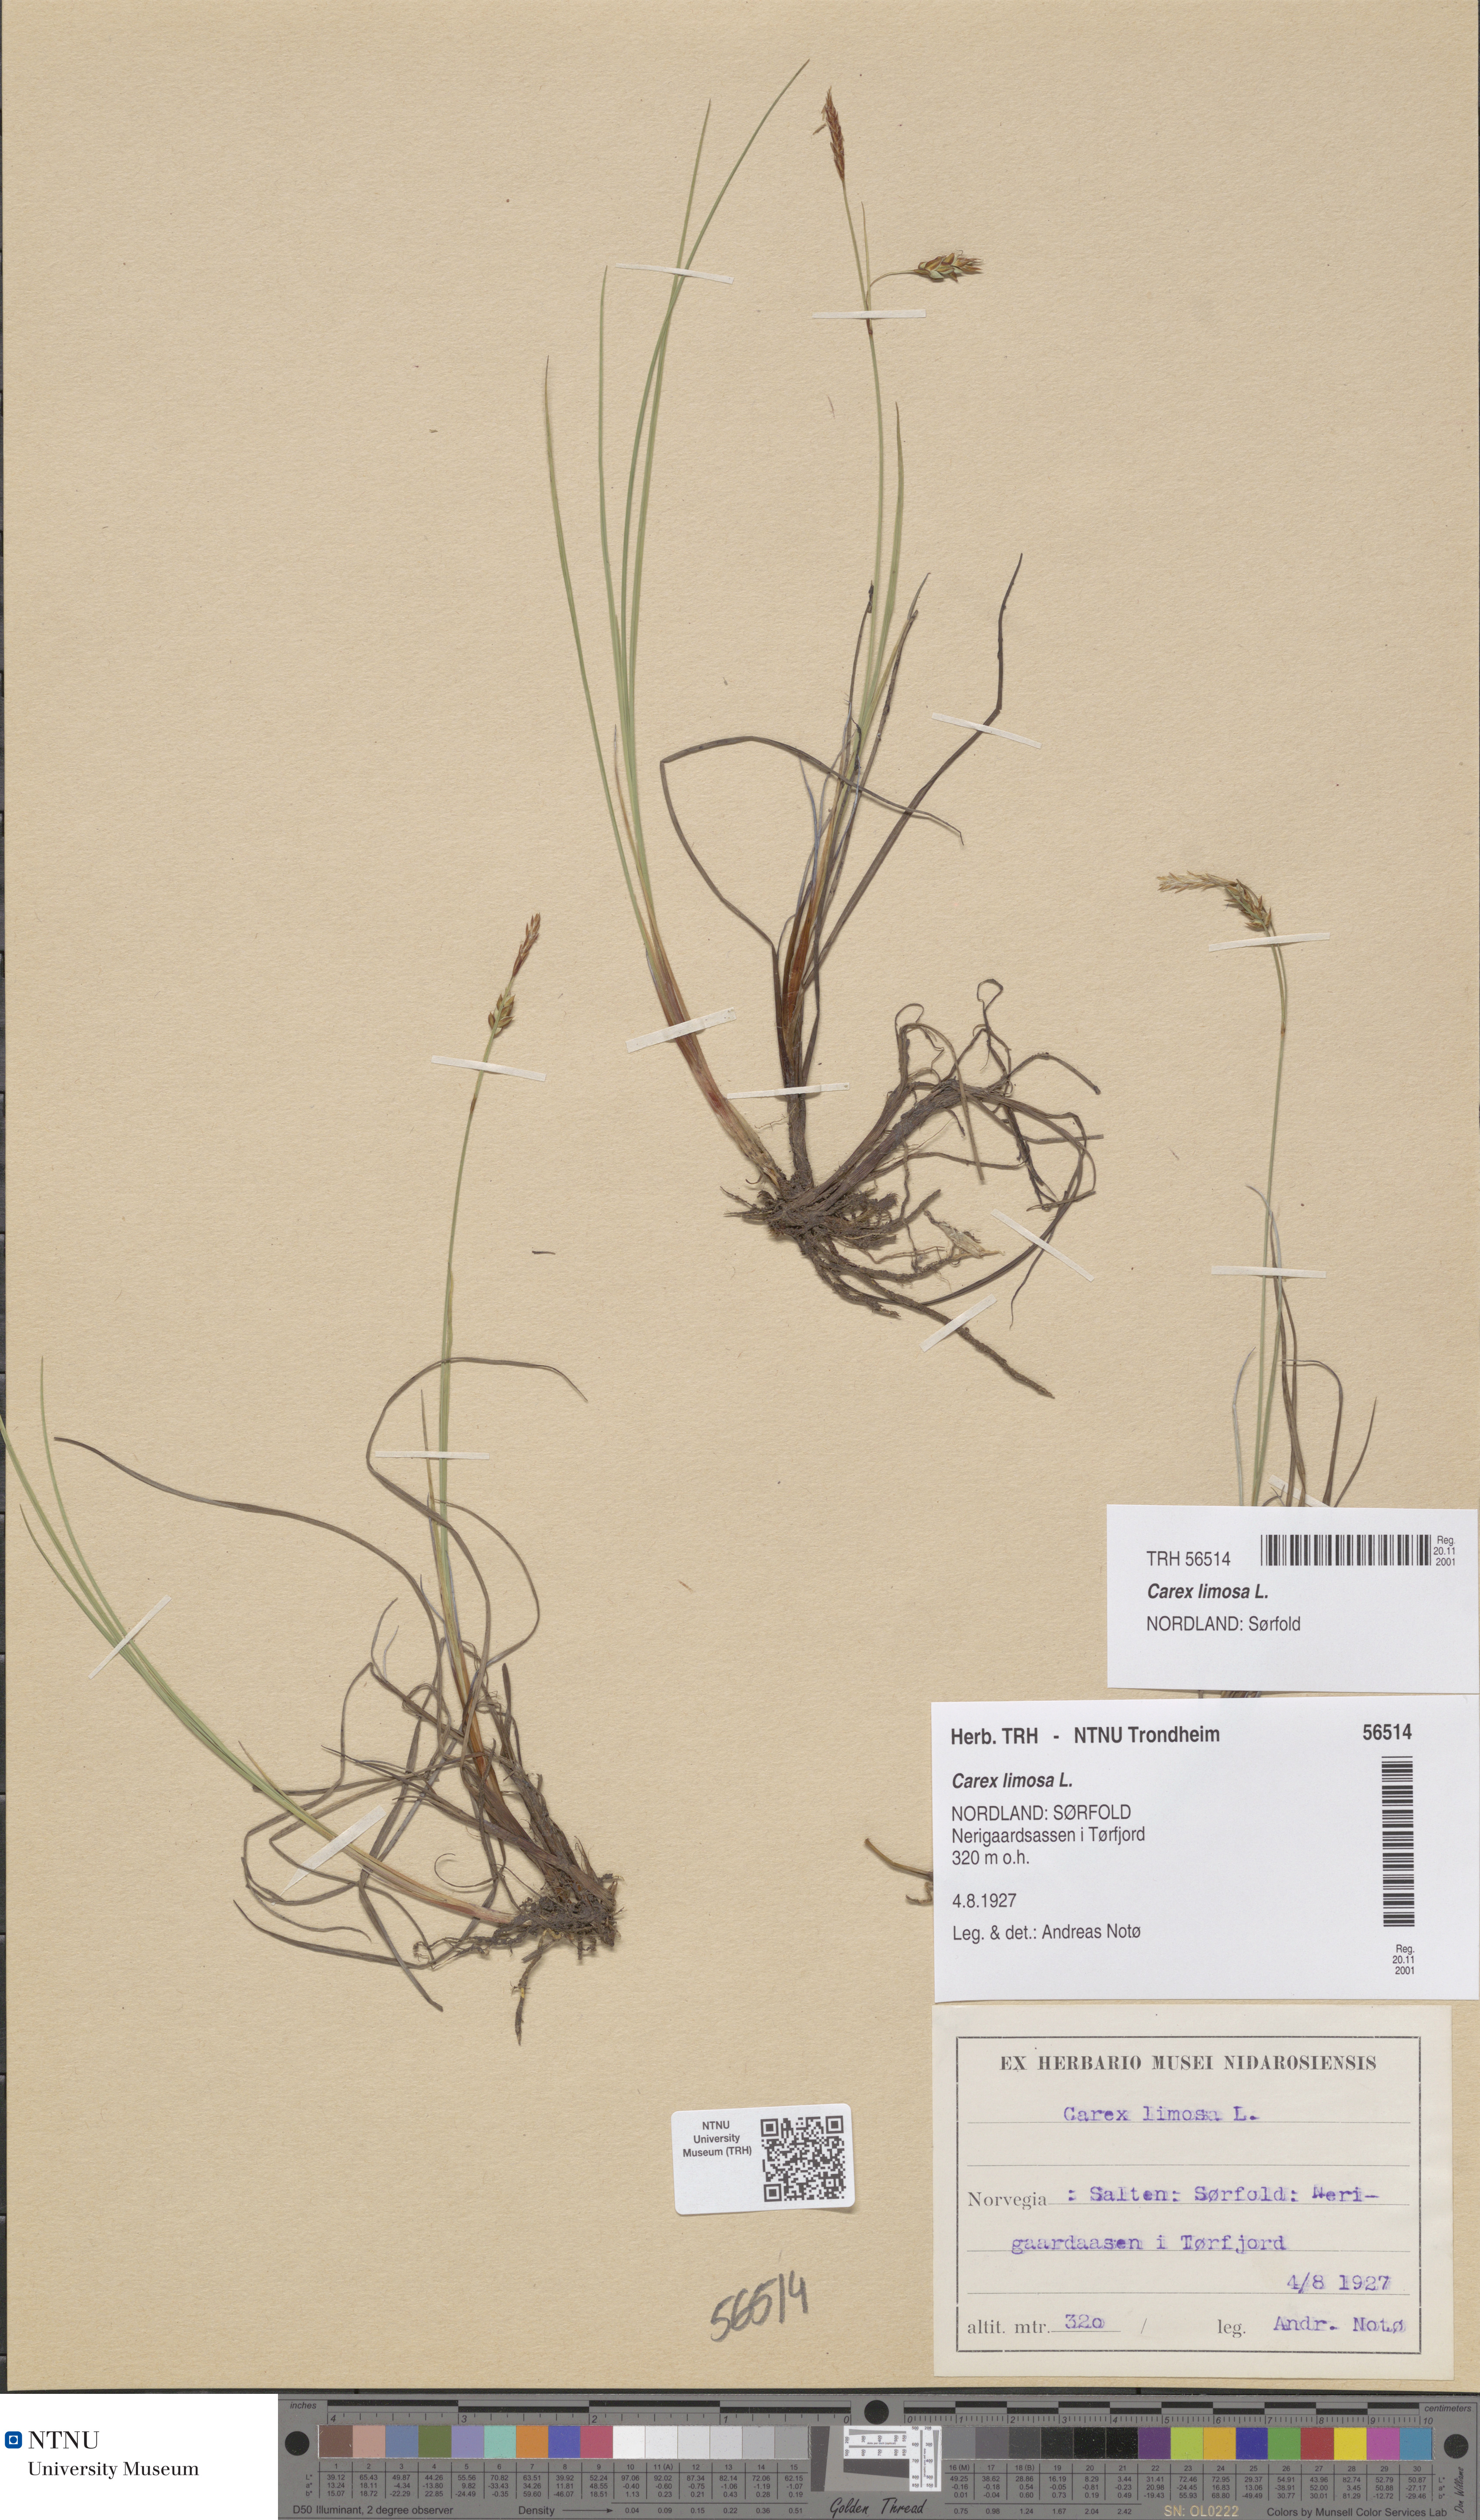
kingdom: Plantae
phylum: Tracheophyta
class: Liliopsida
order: Poales
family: Cyperaceae
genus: Carex
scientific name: Carex limosa
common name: Bog sedge
